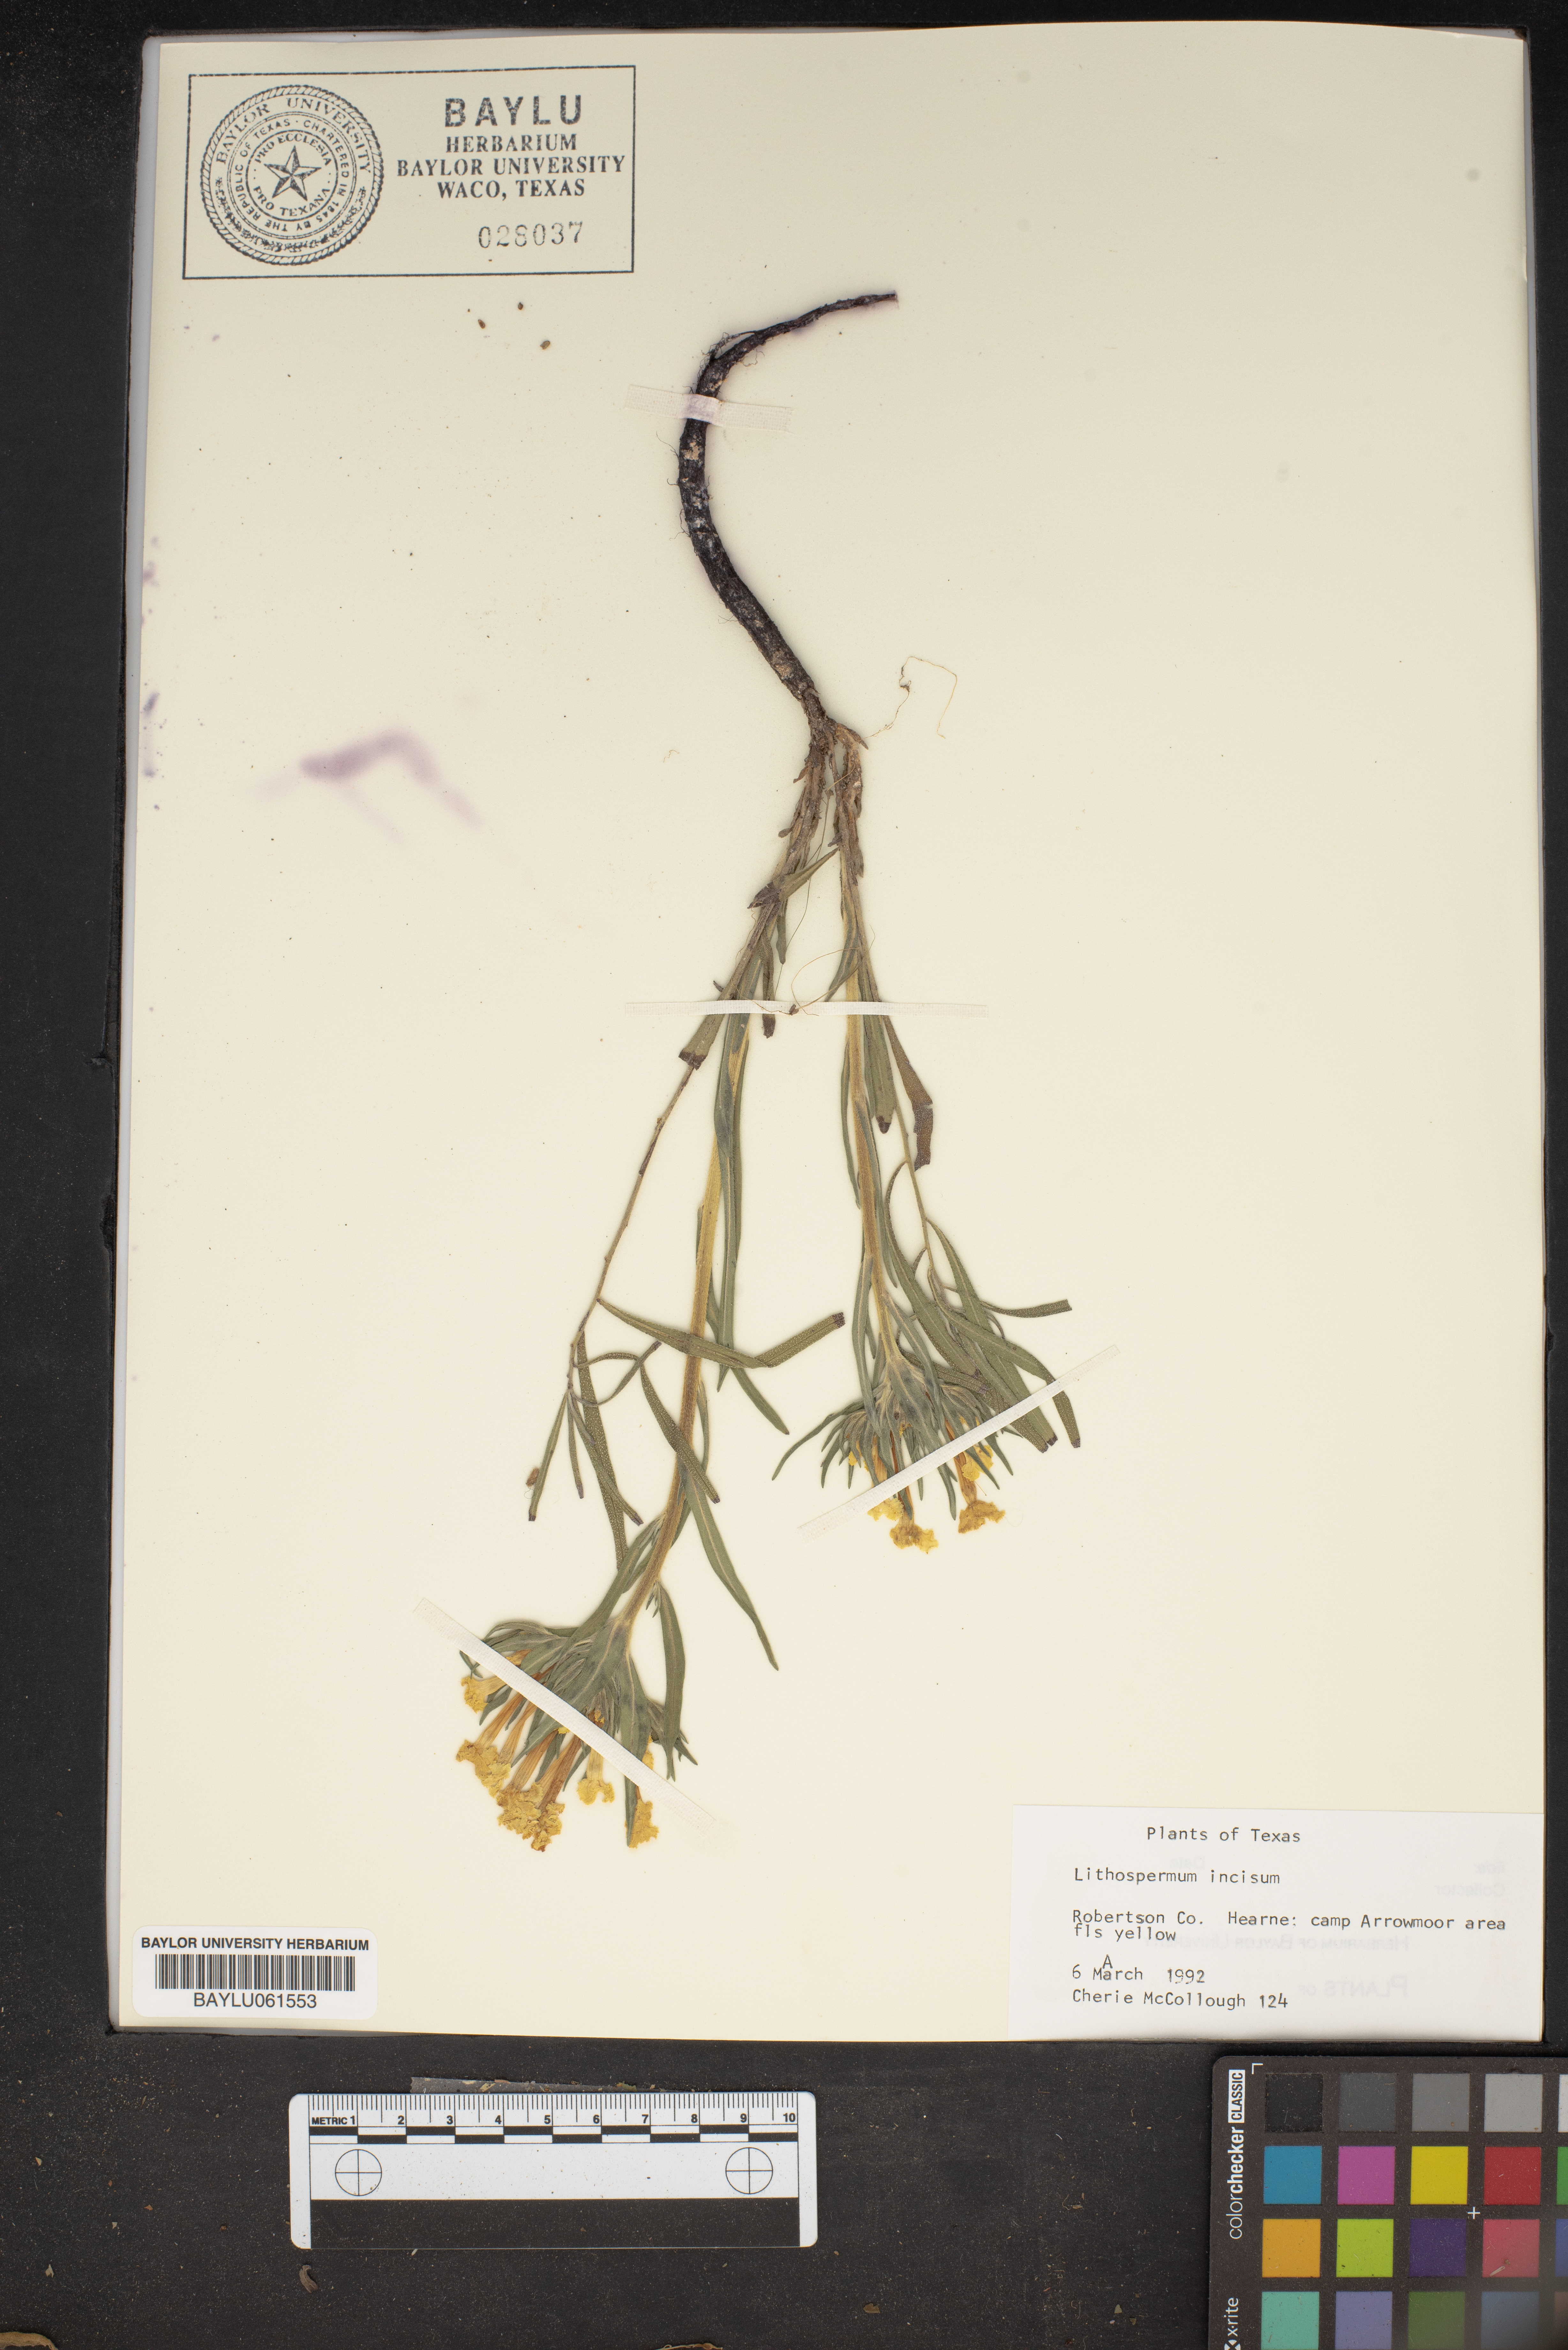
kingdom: Plantae
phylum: Tracheophyta
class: Magnoliopsida
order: Boraginales
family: Boraginaceae
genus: Lithospermum
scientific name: Lithospermum incisum
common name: Fringed gromwell
